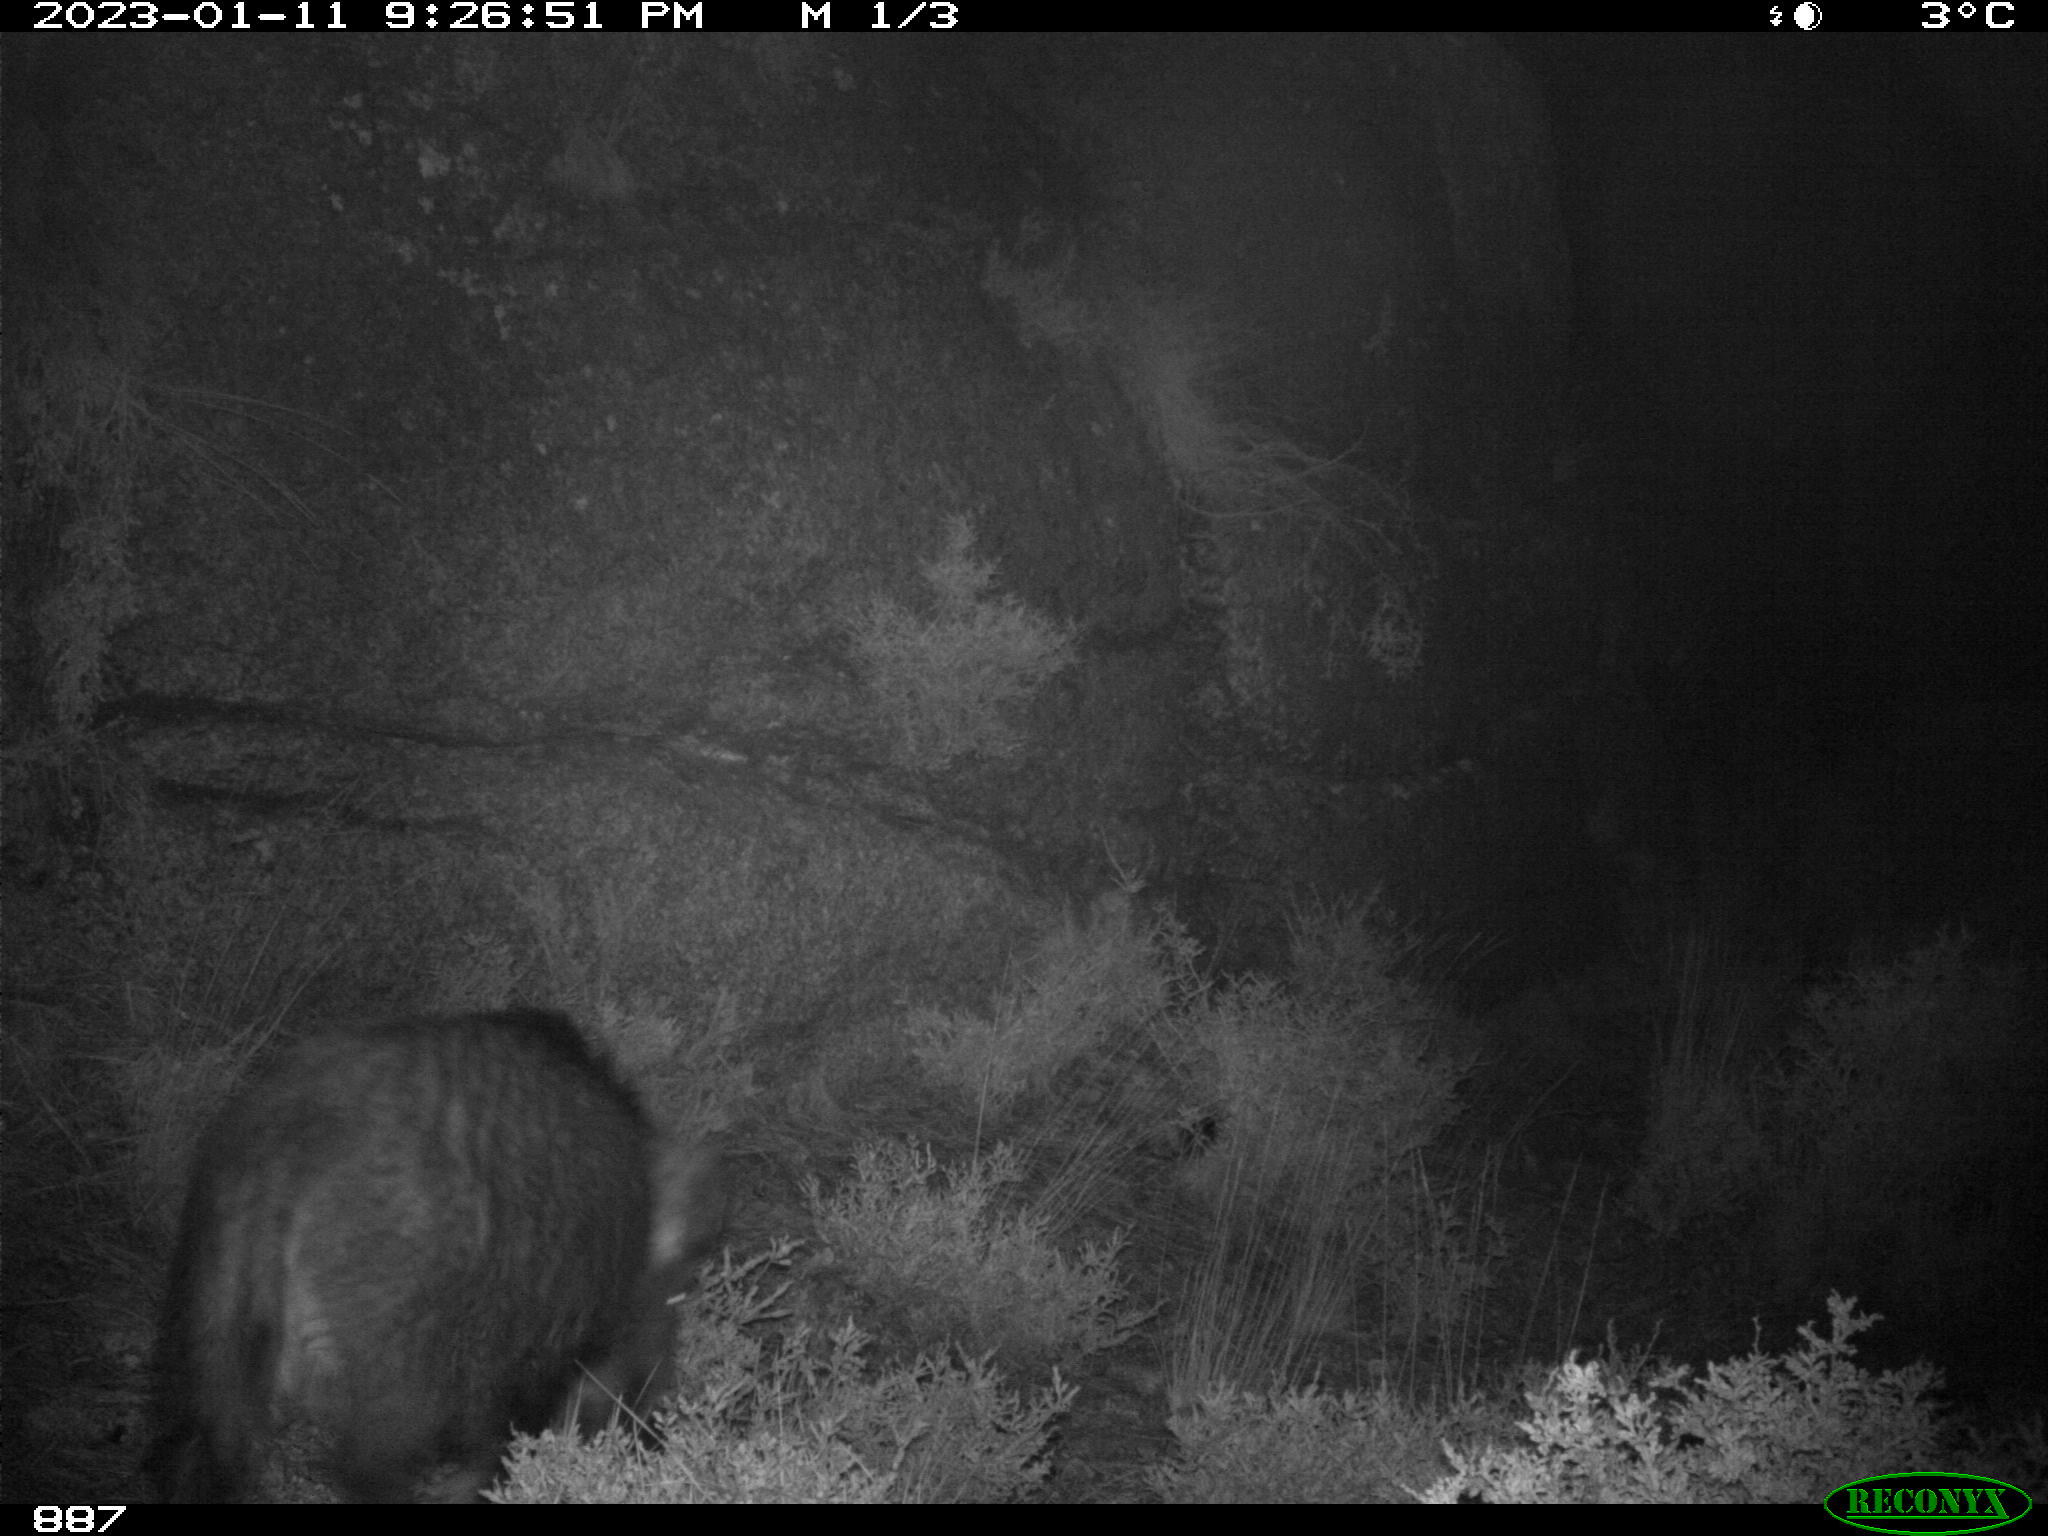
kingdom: Animalia
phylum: Chordata
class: Mammalia
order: Artiodactyla
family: Suidae
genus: Sus
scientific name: Sus scrofa
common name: Wild boar
